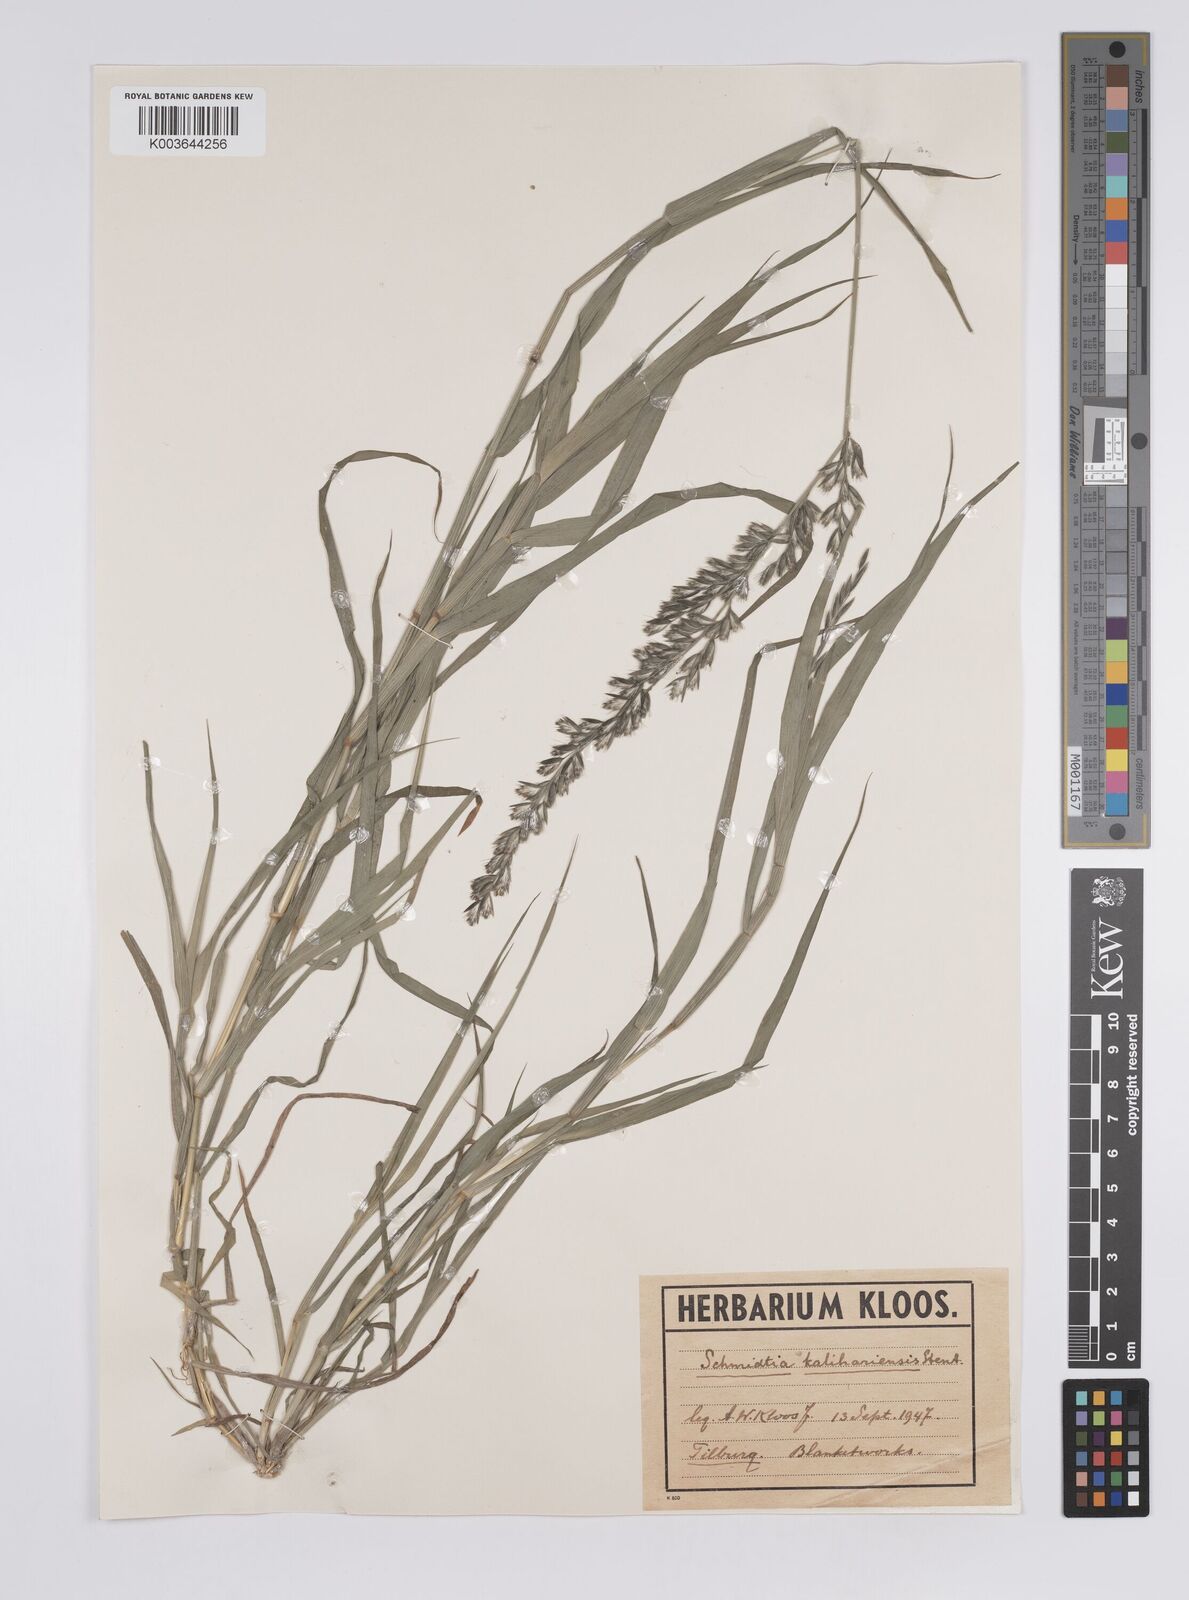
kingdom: Plantae
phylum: Tracheophyta
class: Liliopsida
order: Poales
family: Poaceae
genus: Schmidtia
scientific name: Schmidtia kalahariensis
